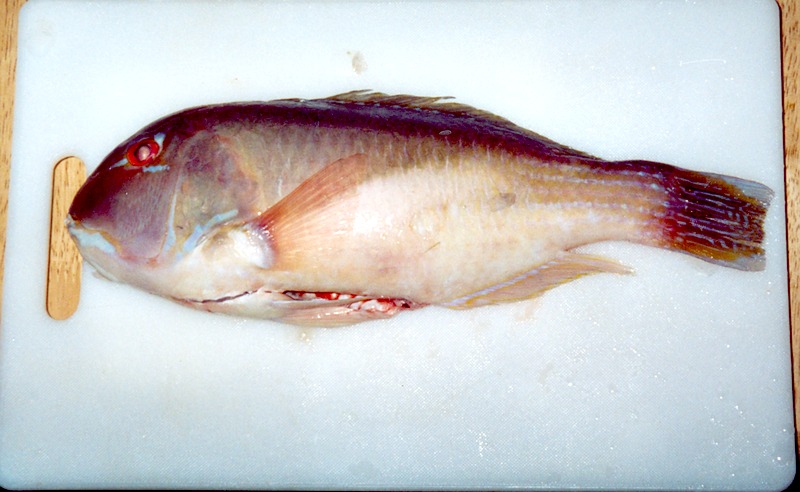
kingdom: Animalia
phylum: Chordata
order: Perciformes
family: Labridae
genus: Choerodon
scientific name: Choerodon robustus
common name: Robust tuskfish
